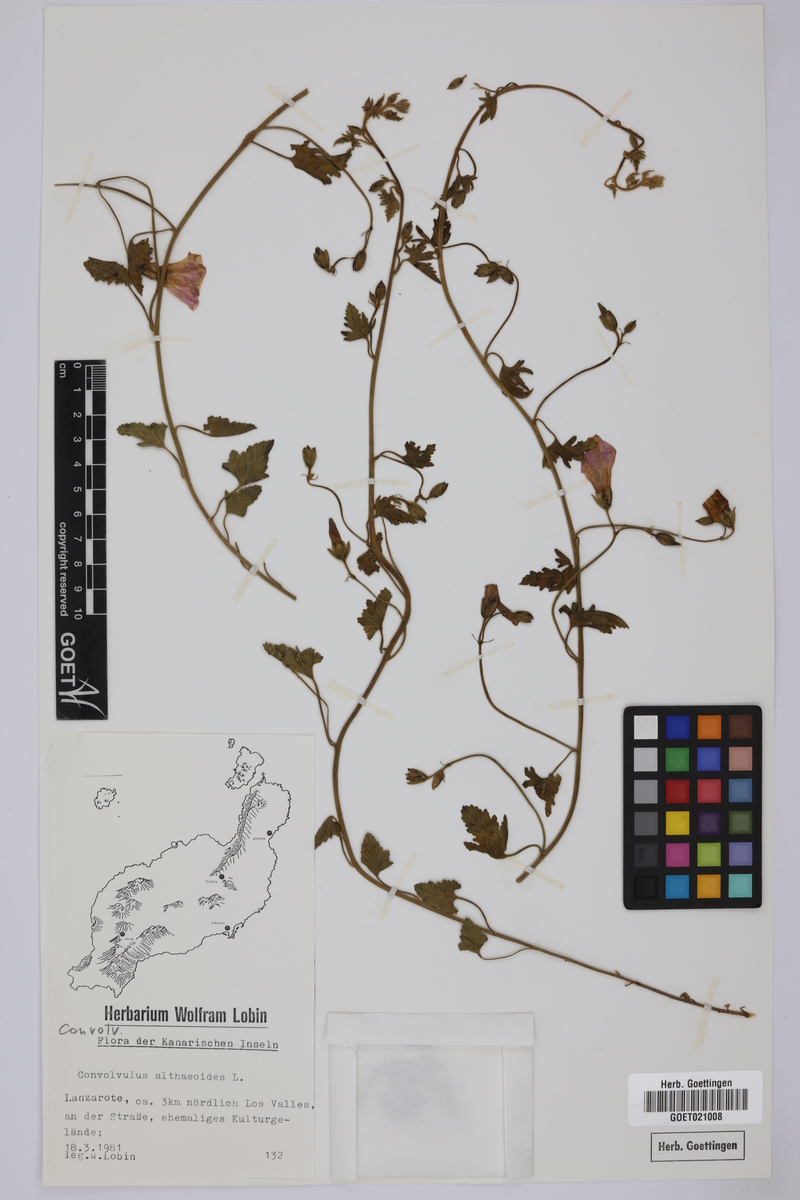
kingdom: Plantae
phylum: Tracheophyta
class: Magnoliopsida
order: Solanales
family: Convolvulaceae
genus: Convolvulus
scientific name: Convolvulus althaeoides
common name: Mallow bindweed
